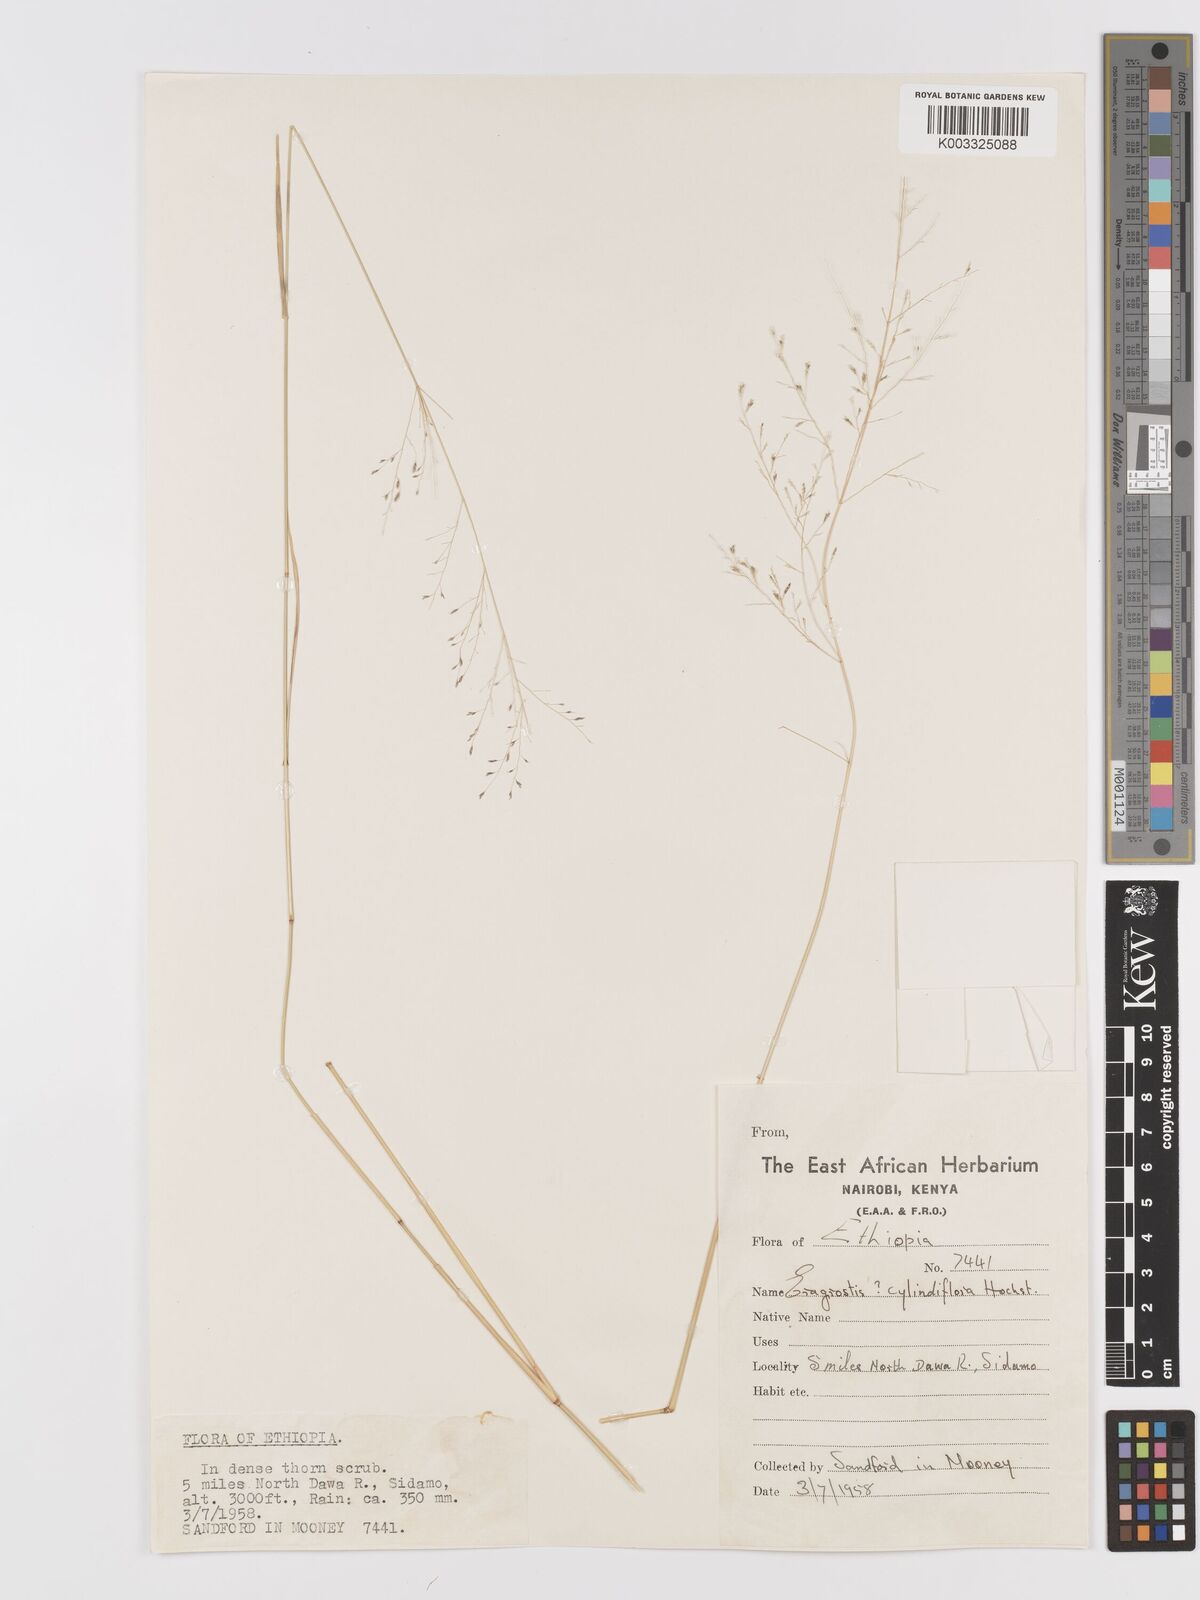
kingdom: Plantae
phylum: Tracheophyta
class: Liliopsida
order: Poales
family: Poaceae
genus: Eragrostis
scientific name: Eragrostis cylindriflora
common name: Cylinderflower lovegrass
